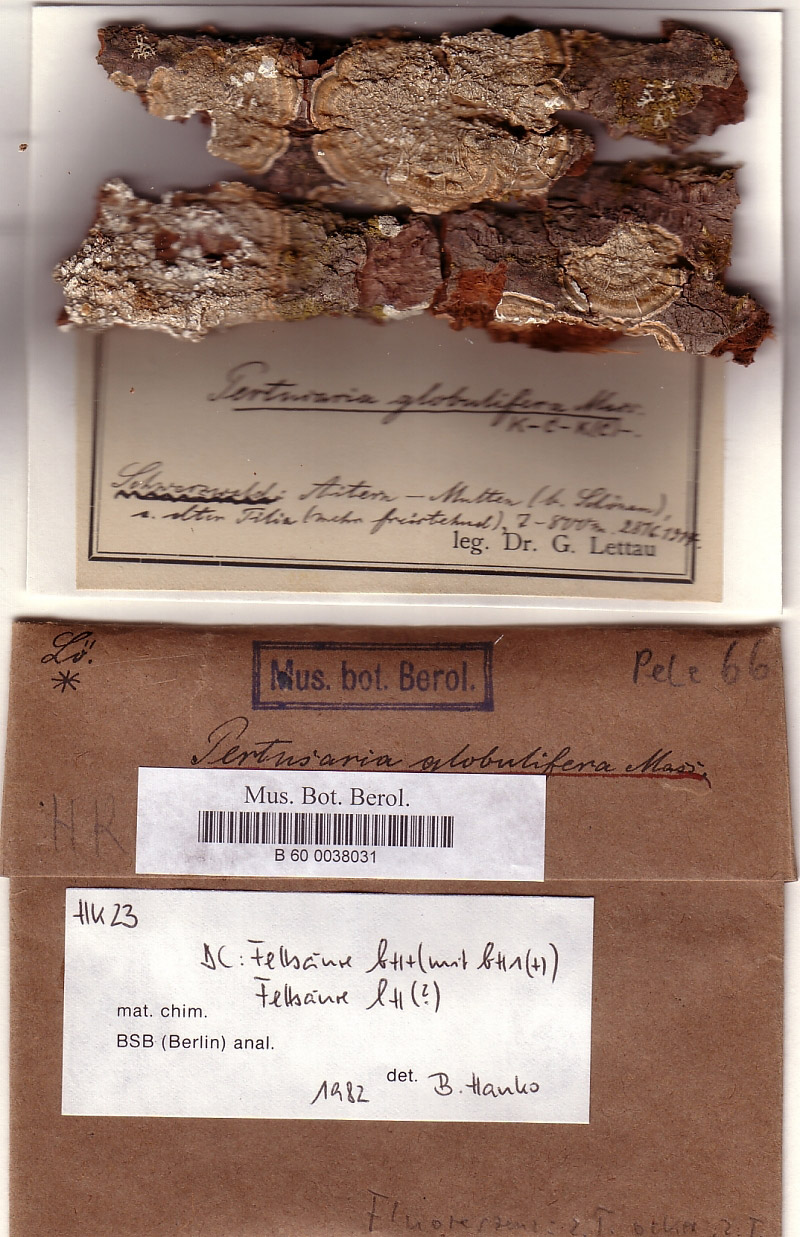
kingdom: Fungi
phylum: Ascomycota
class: Lecanoromycetes
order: Pertusariales
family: Pertusariaceae
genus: Lepra
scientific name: Lepra albescens
